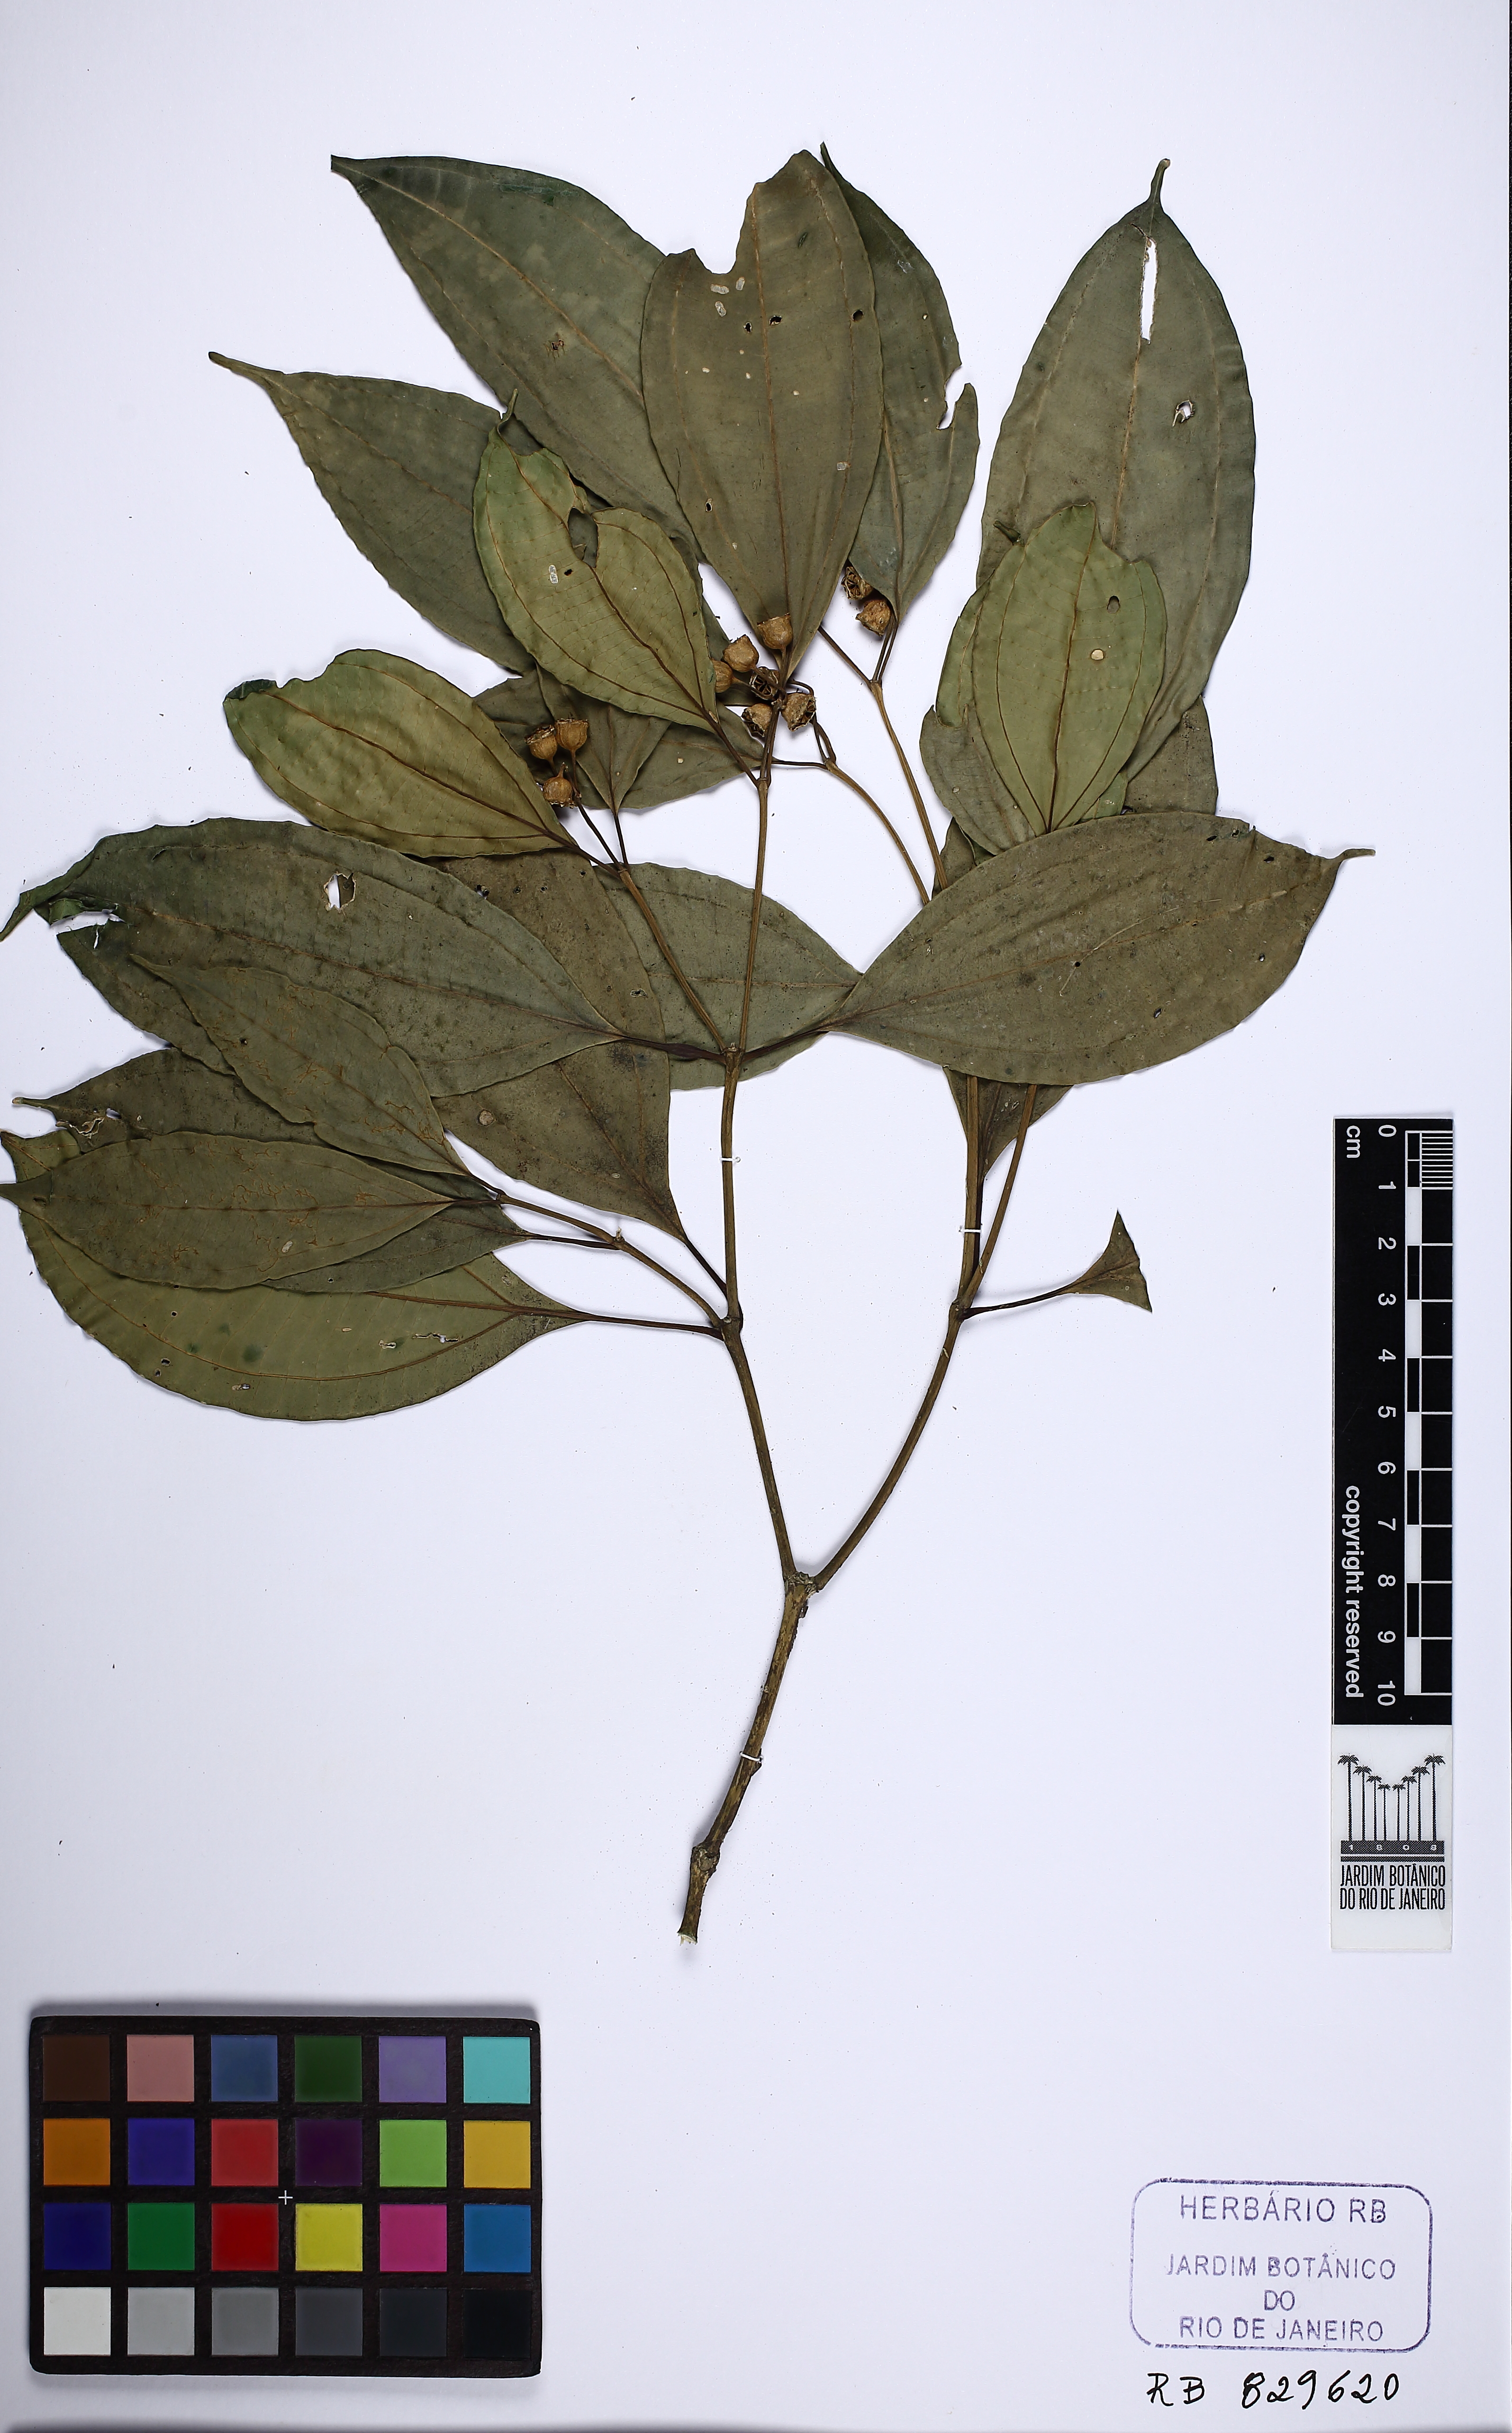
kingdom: Plantae
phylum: Tracheophyta
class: Magnoliopsida
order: Myrtales
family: Melastomataceae
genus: Meriania
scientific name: Meriania glabra
